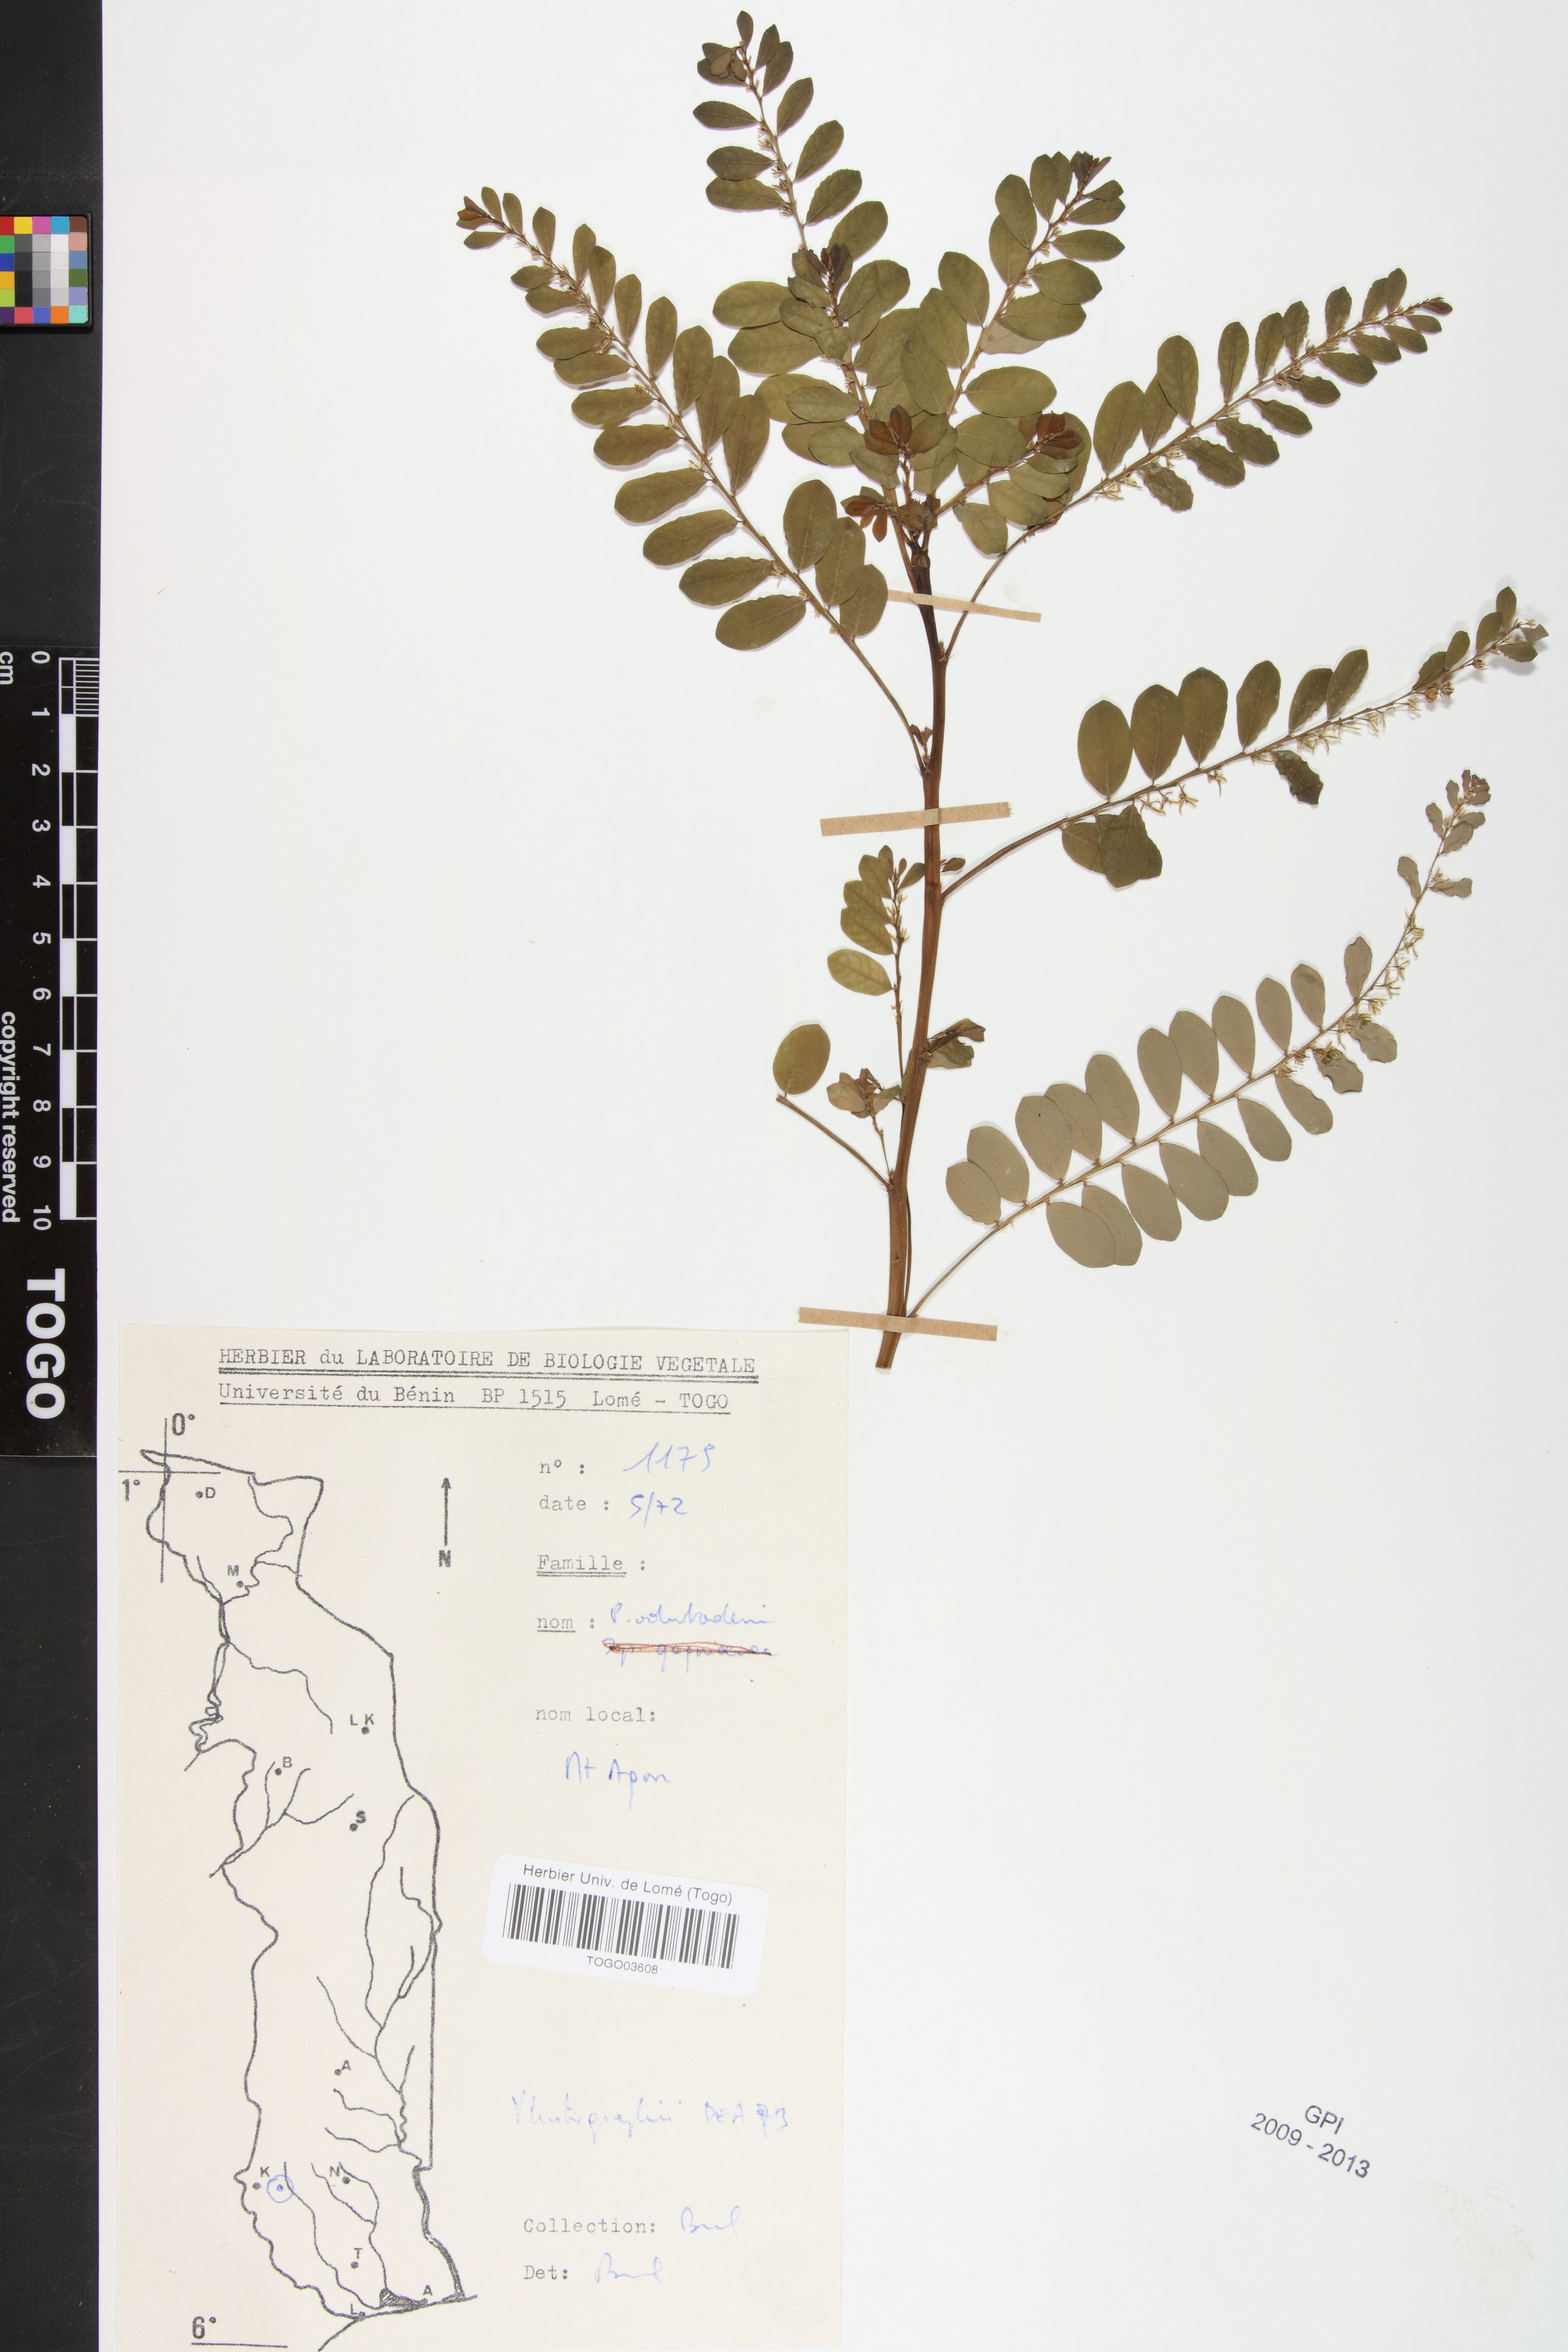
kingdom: Plantae
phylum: Tracheophyta
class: Magnoliopsida
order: Malpighiales
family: Phyllanthaceae
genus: Phyllanthus
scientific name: Phyllanthus odontadenius
